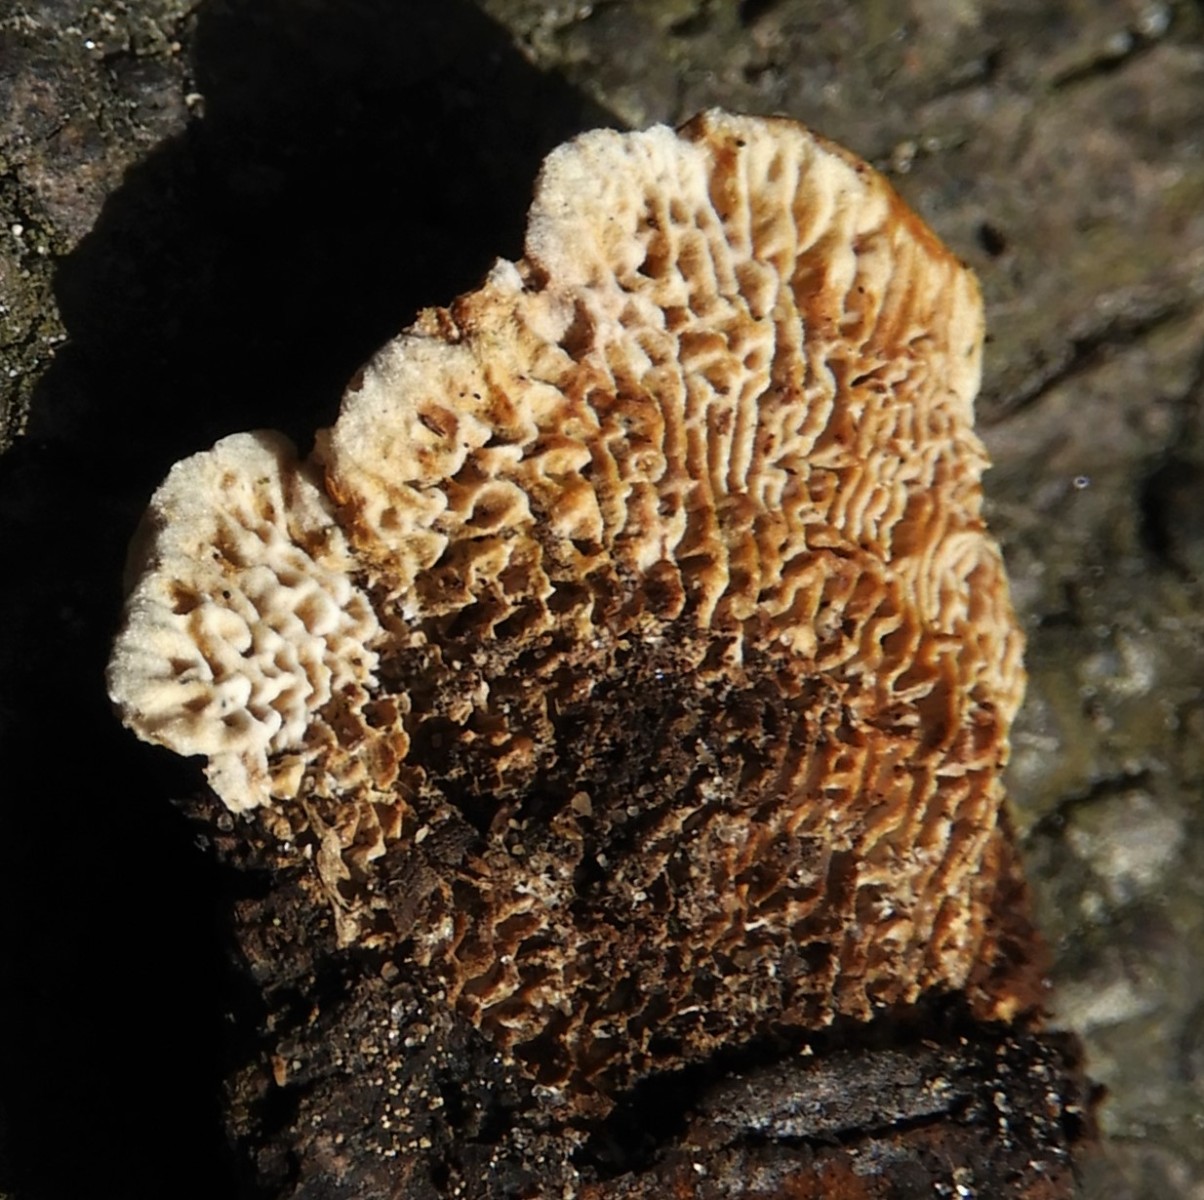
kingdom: Fungi
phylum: Basidiomycota
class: Agaricomycetes
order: Gloeophyllales
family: Gloeophyllaceae
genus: Gloeophyllum
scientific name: Gloeophyllum sepiarium
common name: fyrre-korkhat
